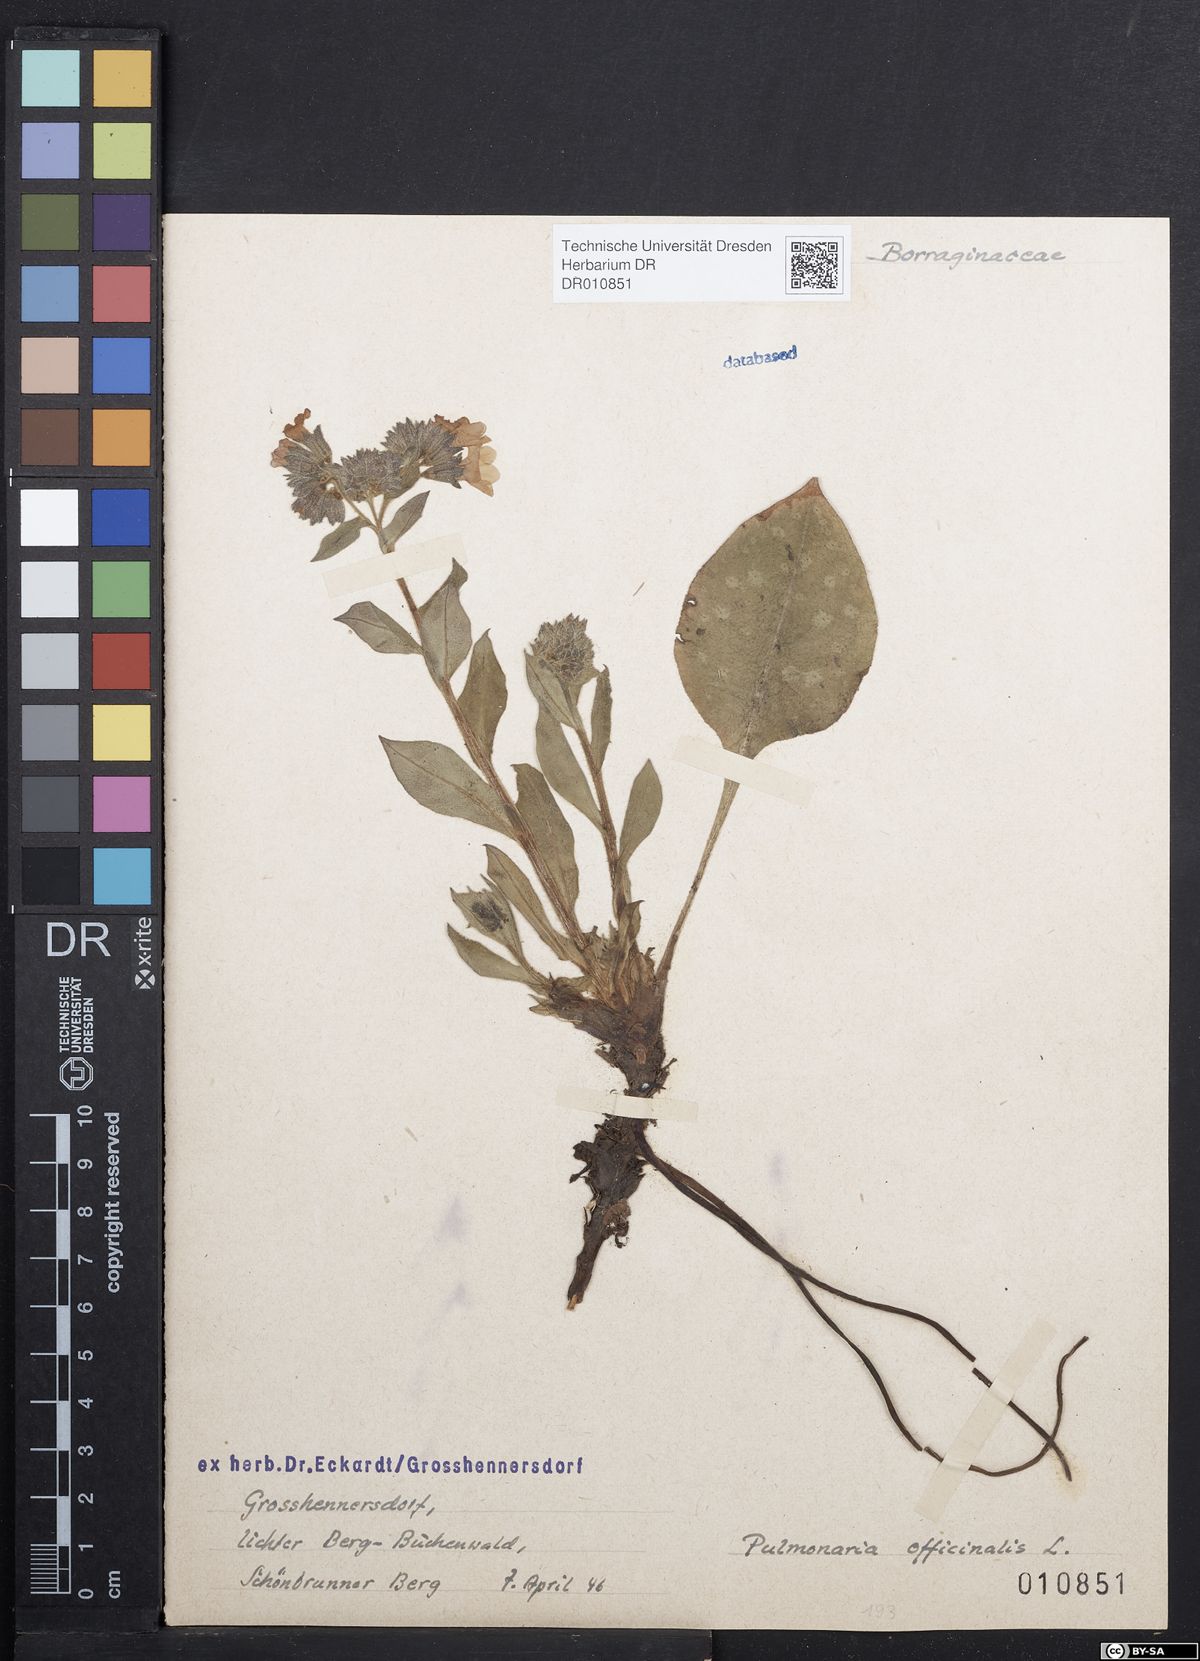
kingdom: Plantae
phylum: Tracheophyta
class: Magnoliopsida
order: Boraginales
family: Boraginaceae
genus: Pulmonaria
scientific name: Pulmonaria officinalis
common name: Lungwort
